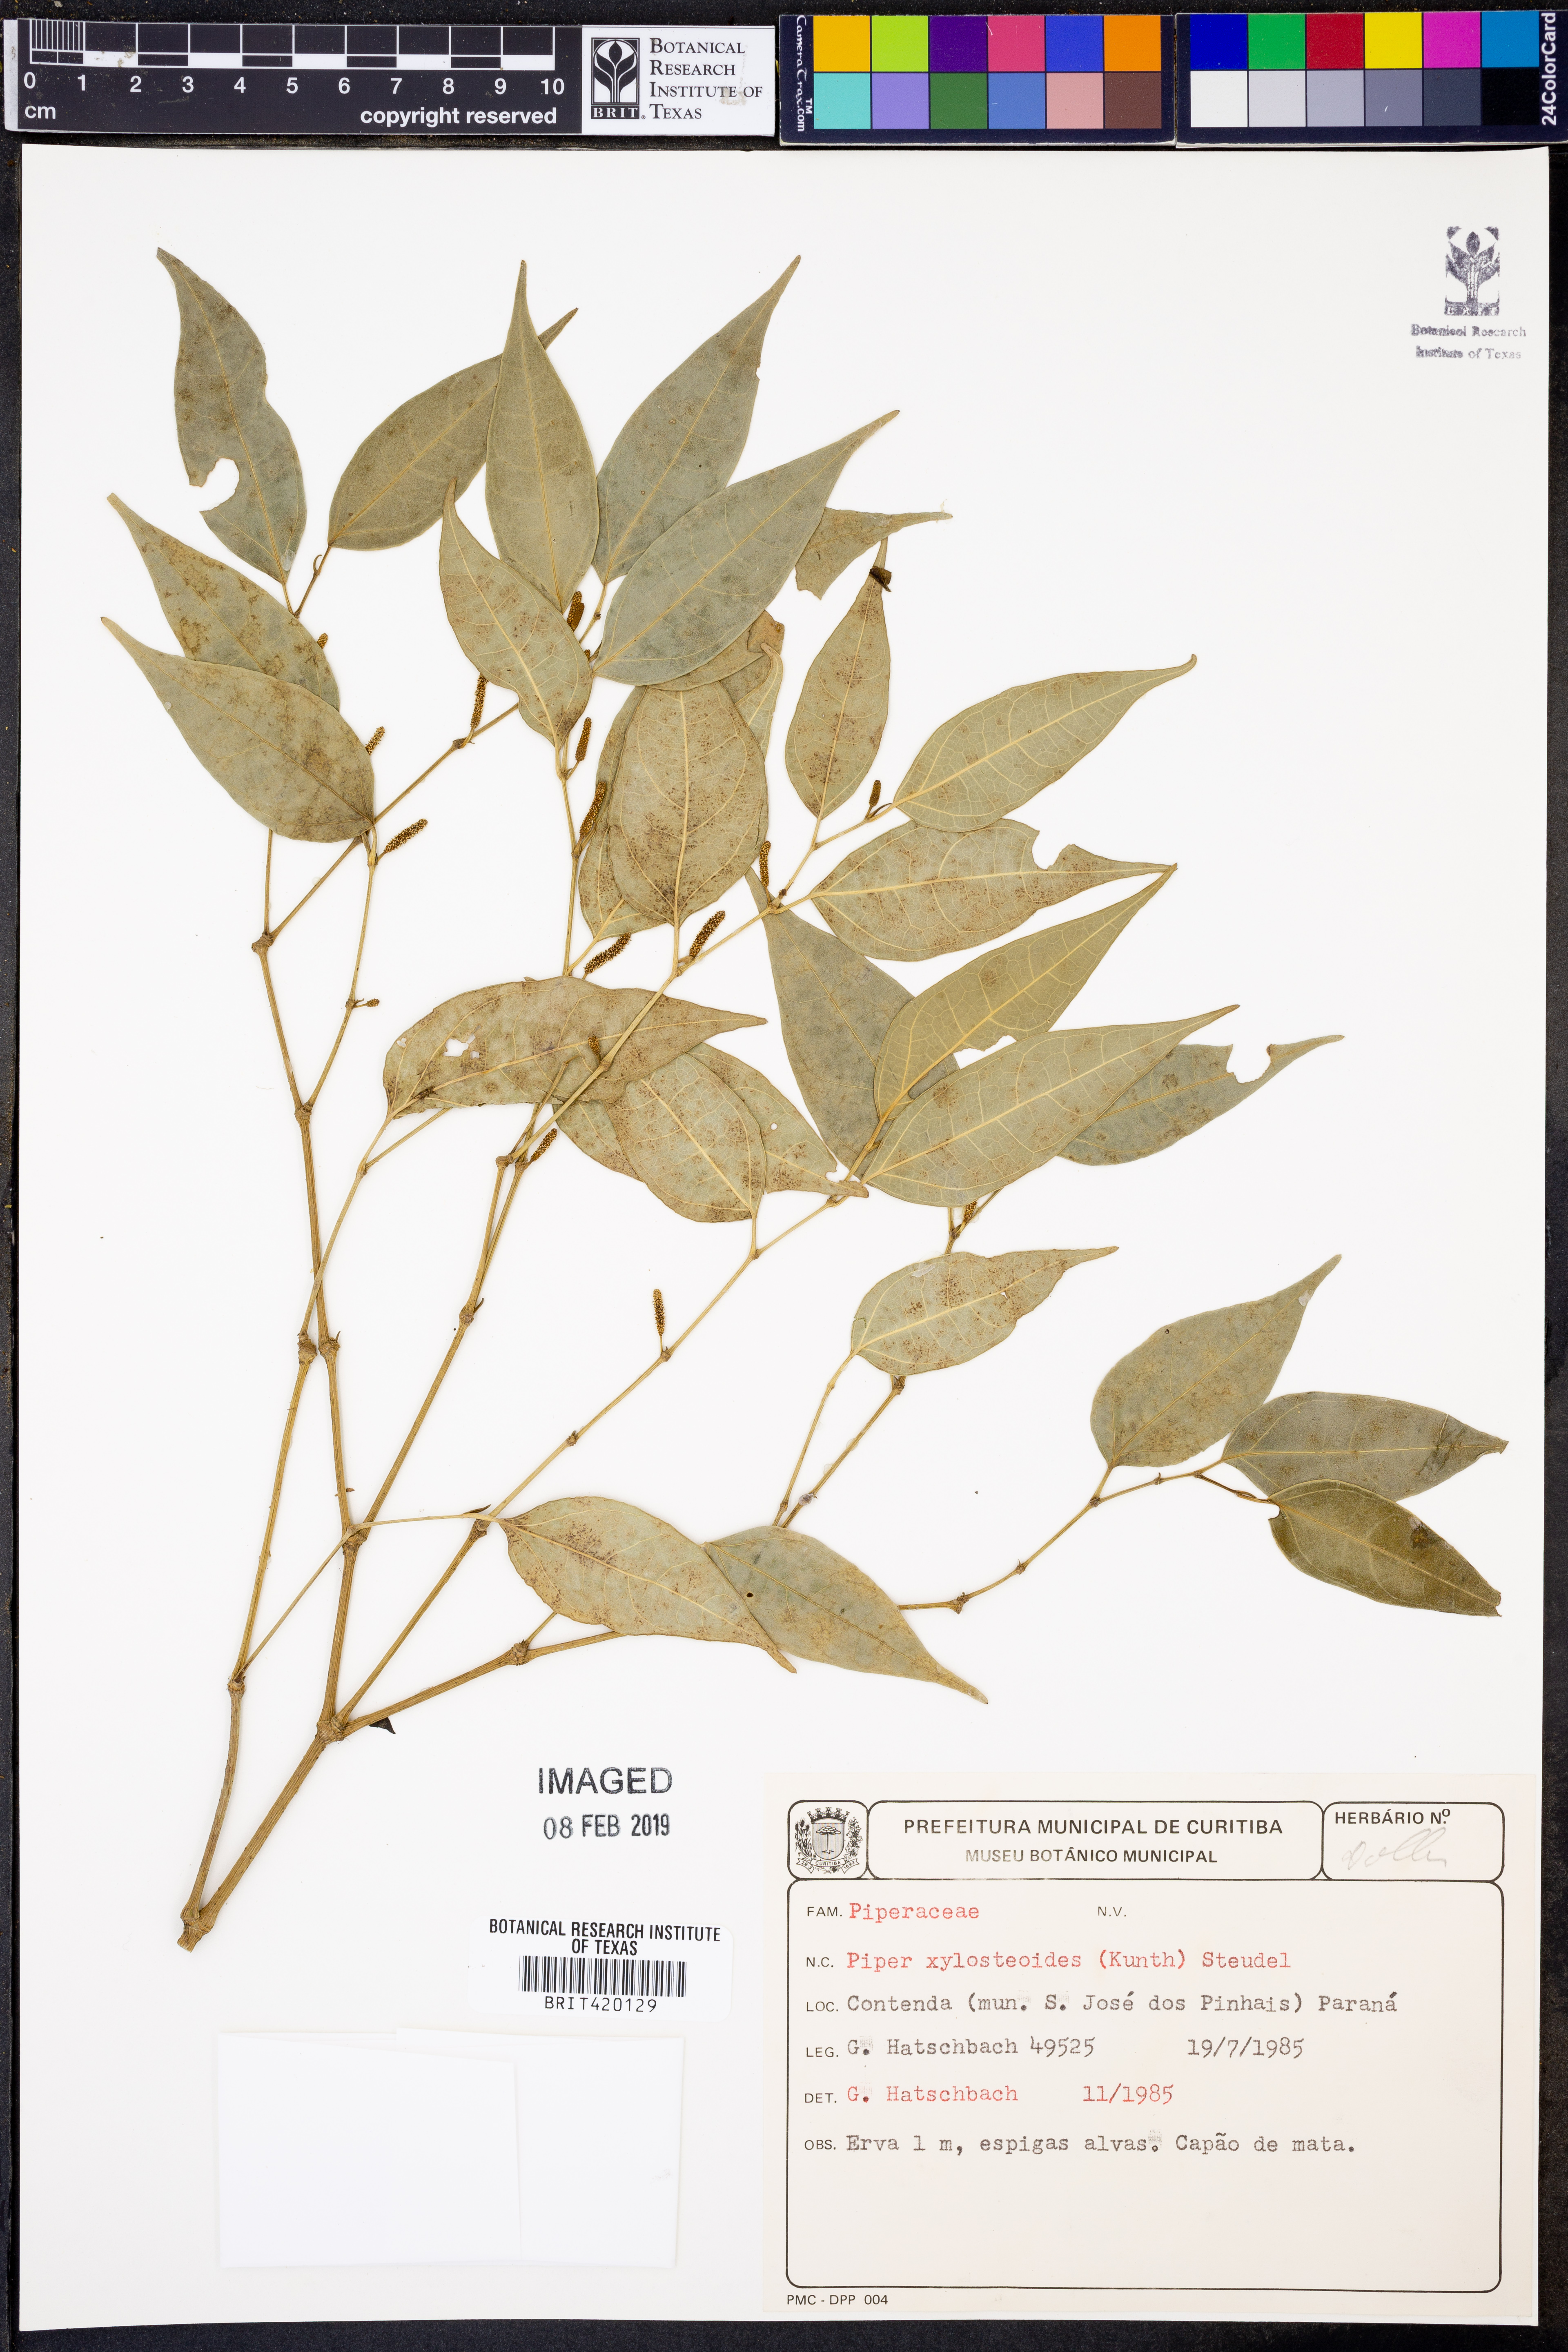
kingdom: Plantae
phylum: Tracheophyta
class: Magnoliopsida
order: Piperales
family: Piperaceae
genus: Piper
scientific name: Piper xylosteoides
